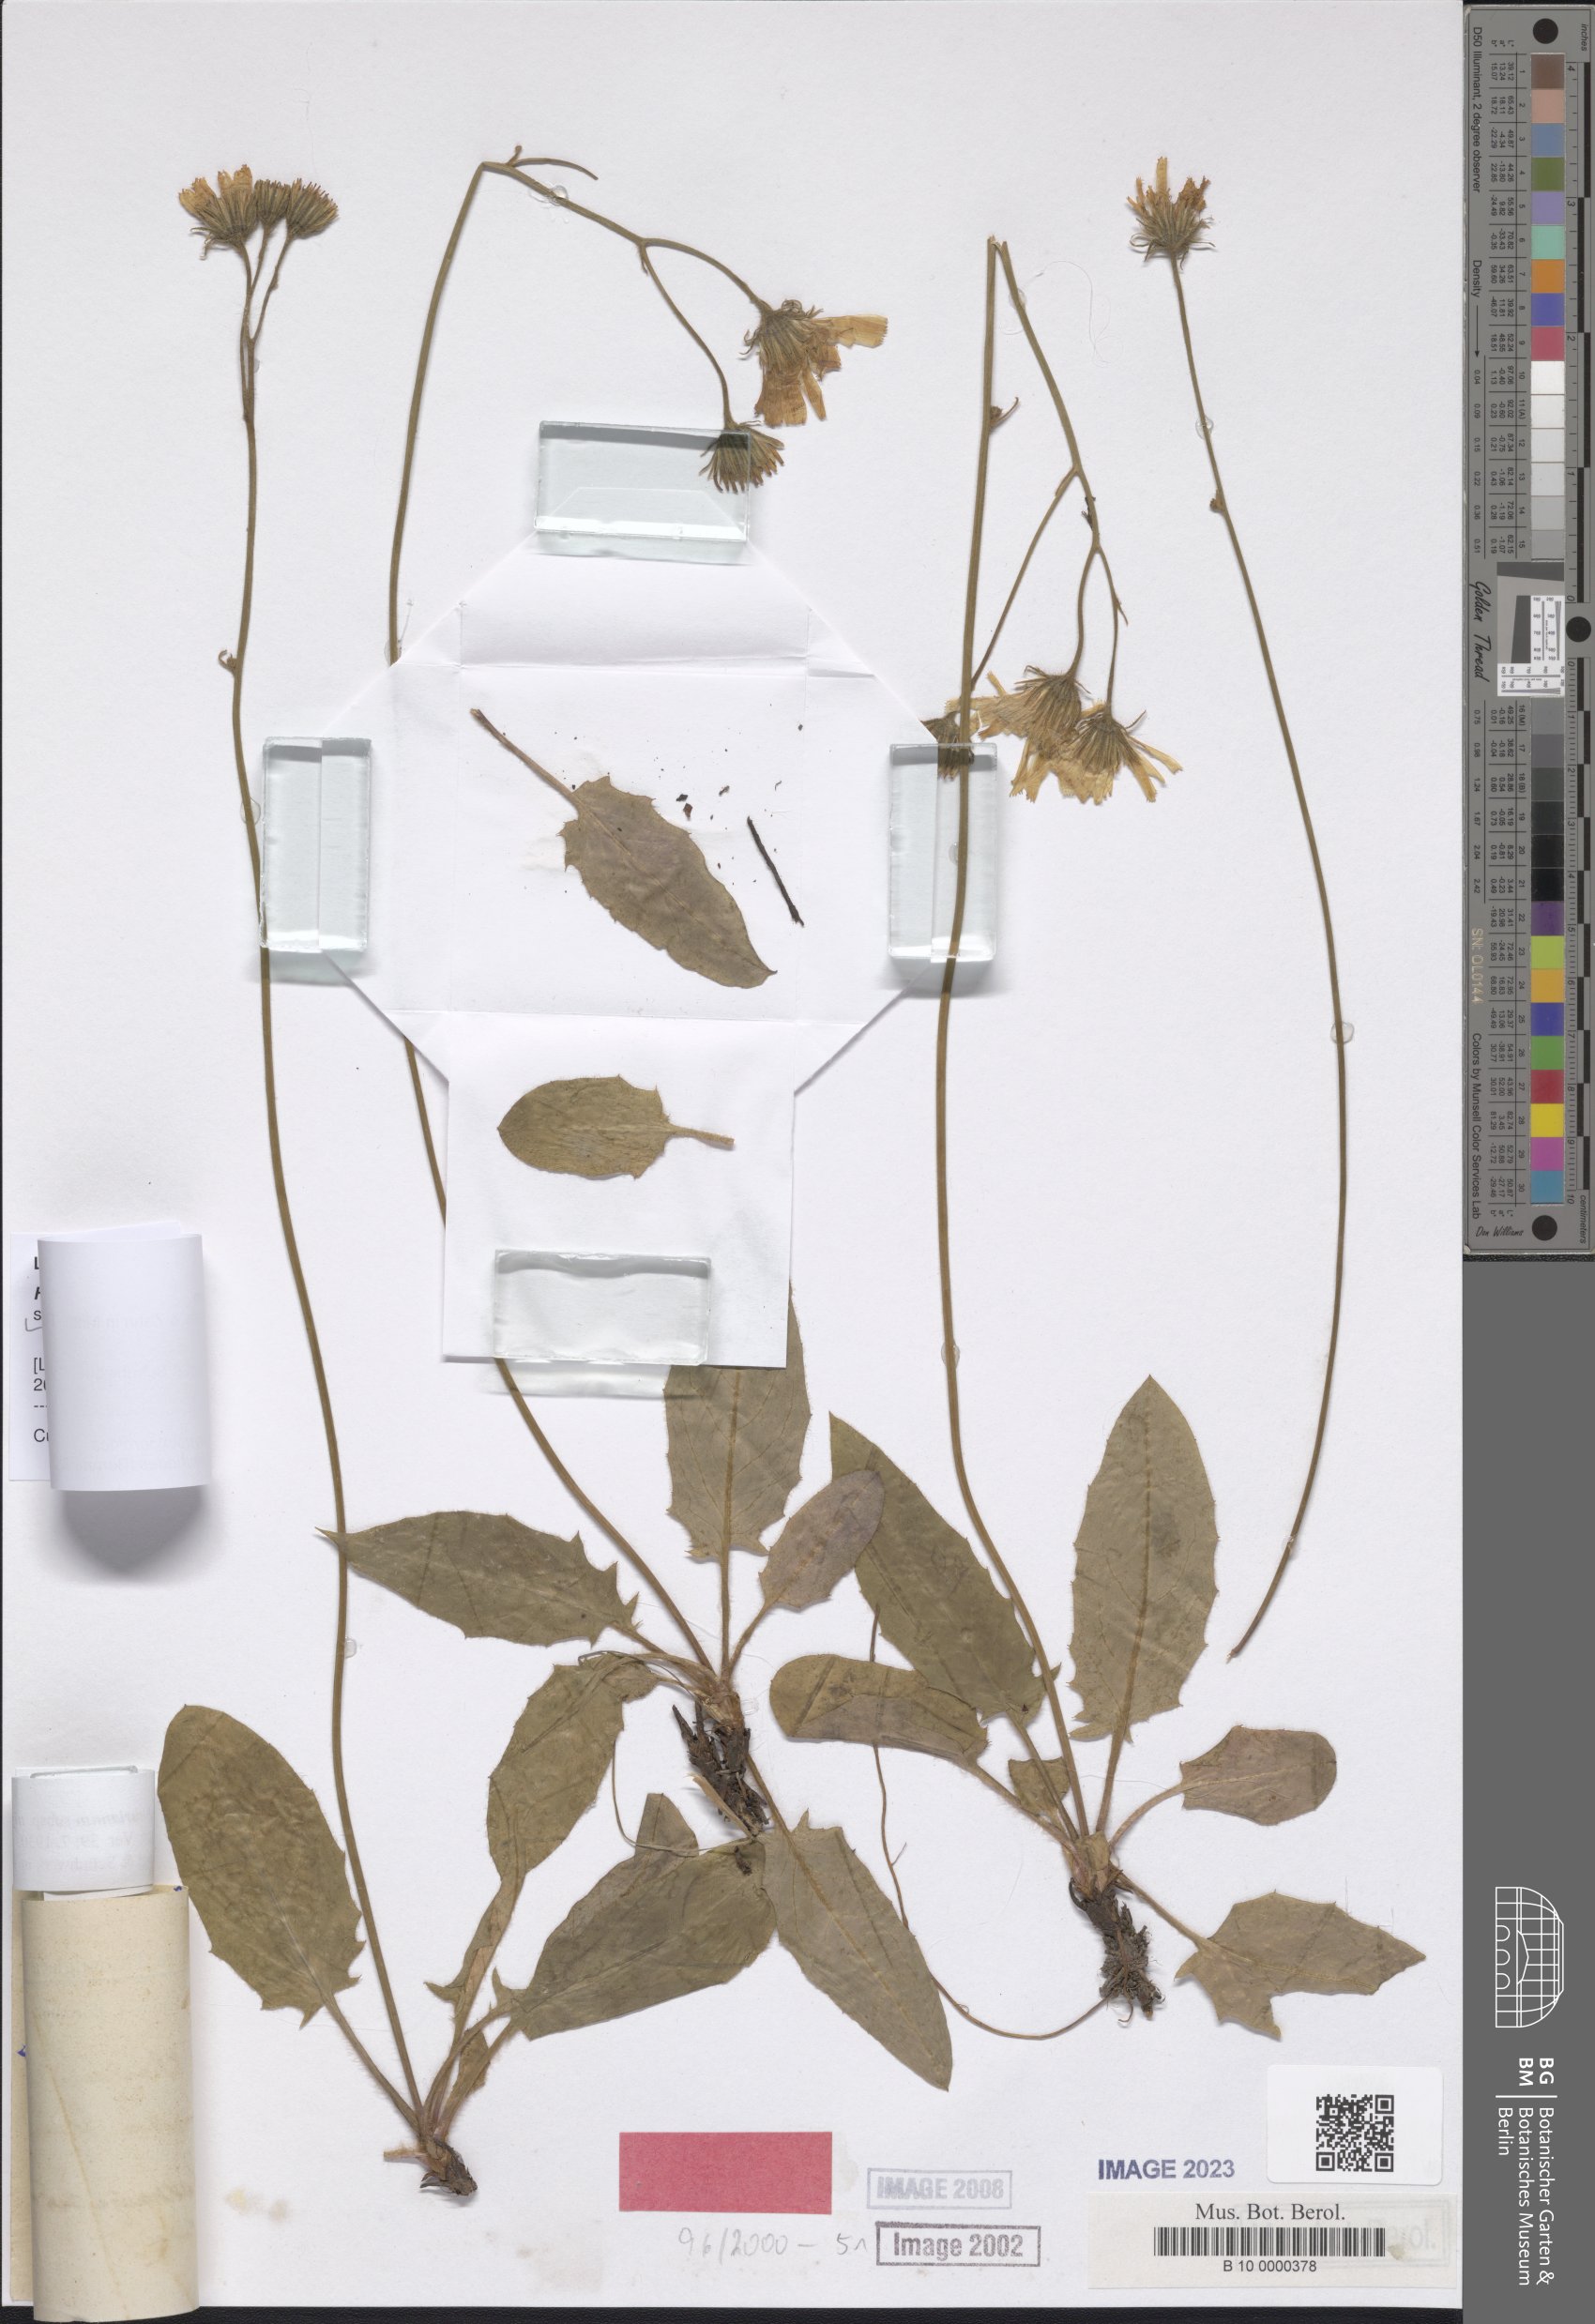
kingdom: Plantae
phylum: Tracheophyta
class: Magnoliopsida
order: Asterales
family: Asteraceae
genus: Hieracium
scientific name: Hieracium hypochoeroides
